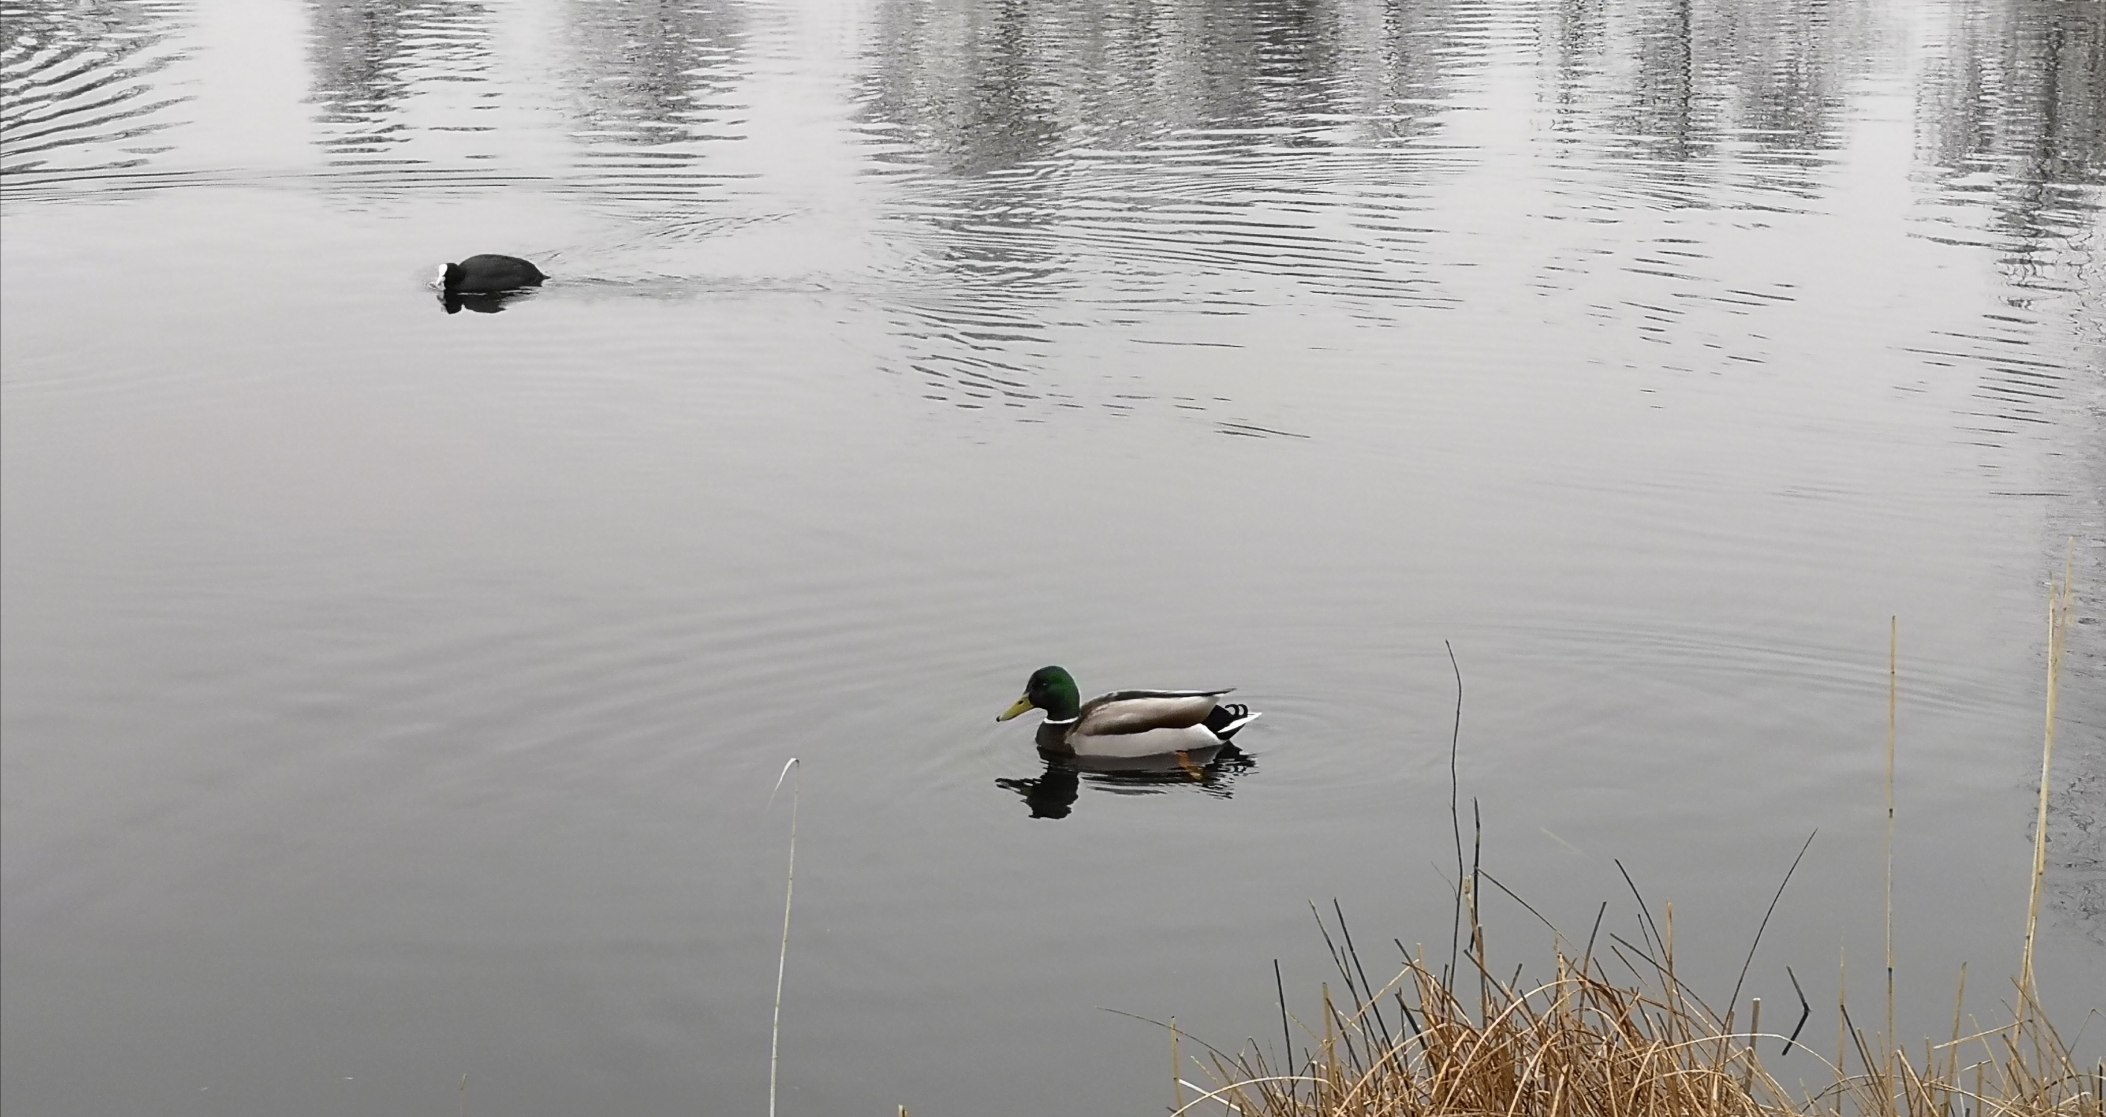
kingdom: Animalia
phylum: Chordata
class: Aves
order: Anseriformes
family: Anatidae
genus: Anas
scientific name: Anas platyrhynchos
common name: Gråand
